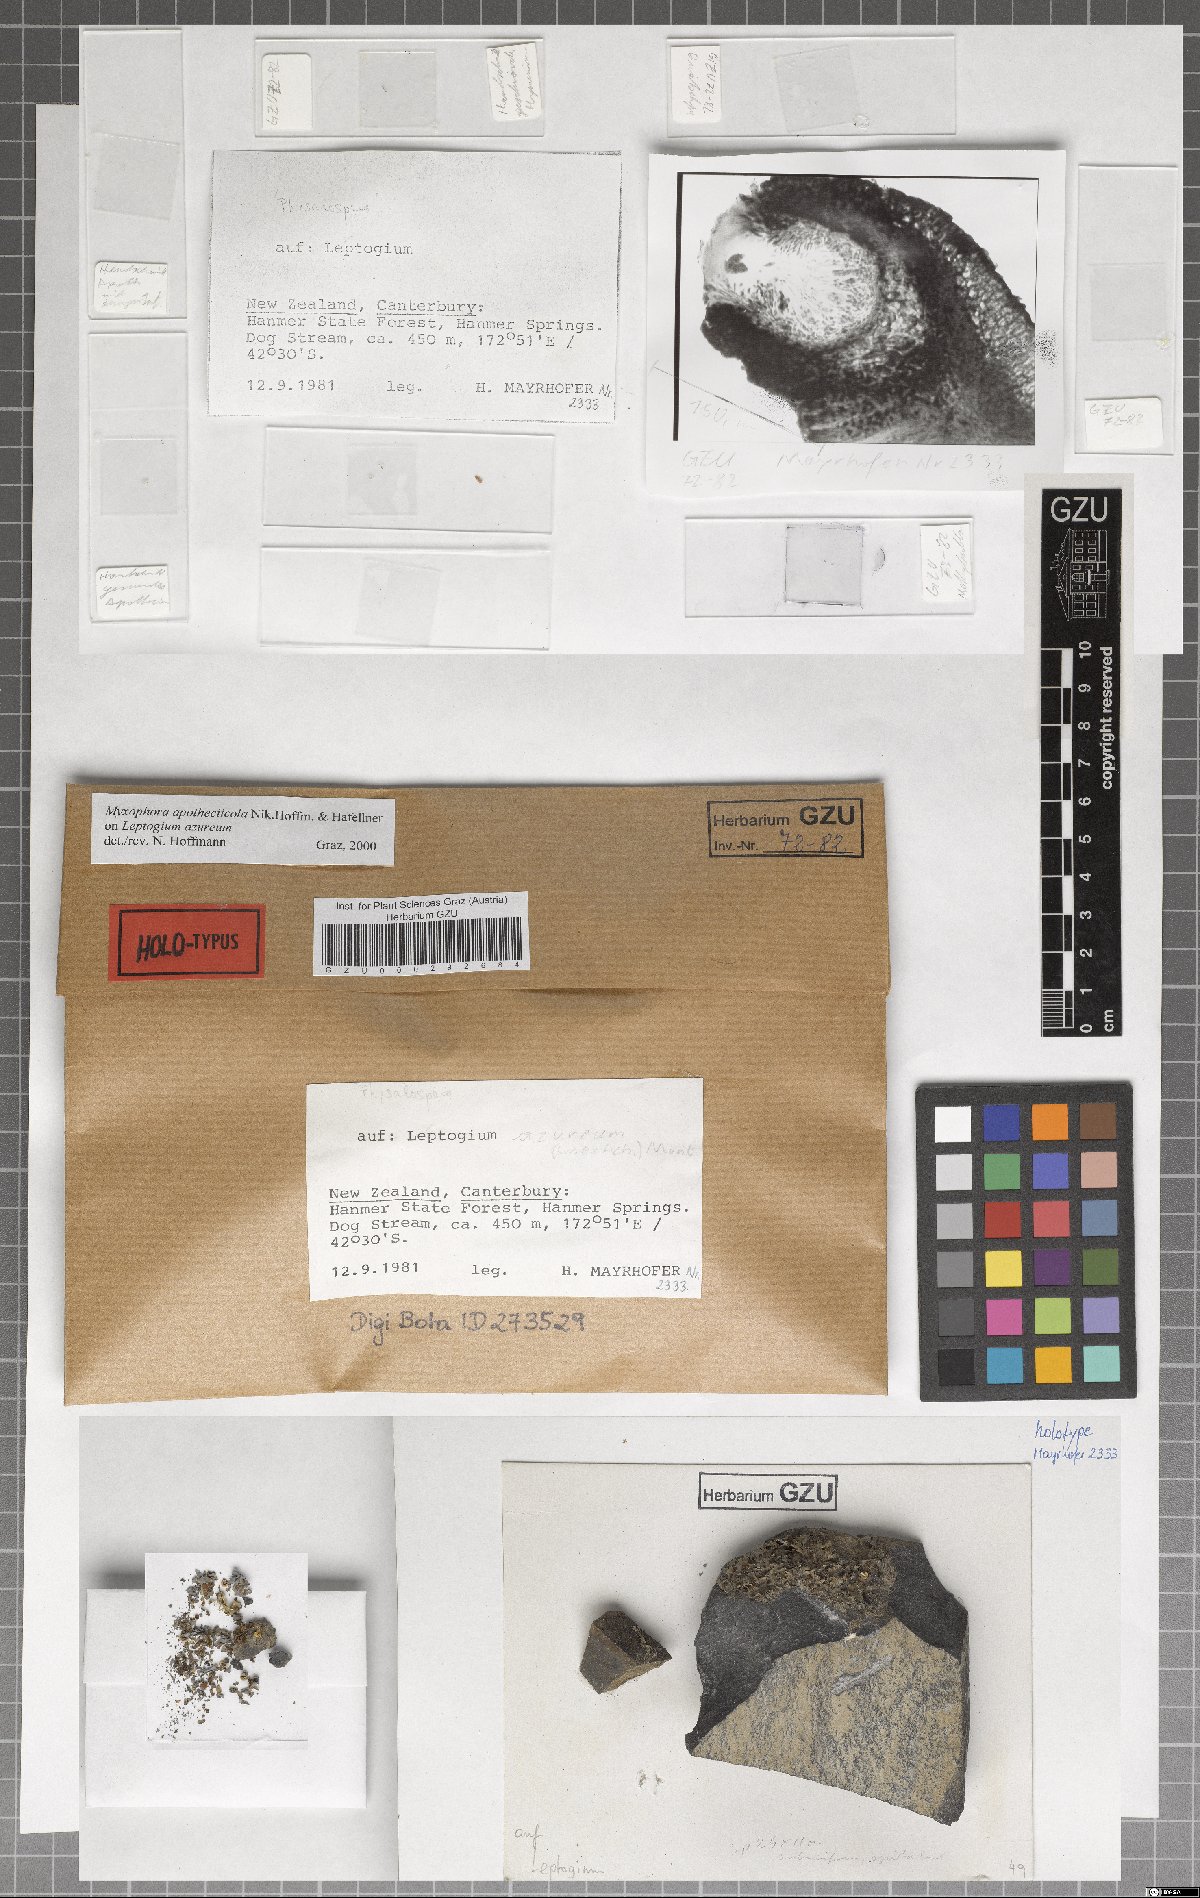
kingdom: Fungi
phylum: Ascomycota
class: Dothideomycetes
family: Pseudoperisporiaceae
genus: Myxophora
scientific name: Myxophora apotheciicola
